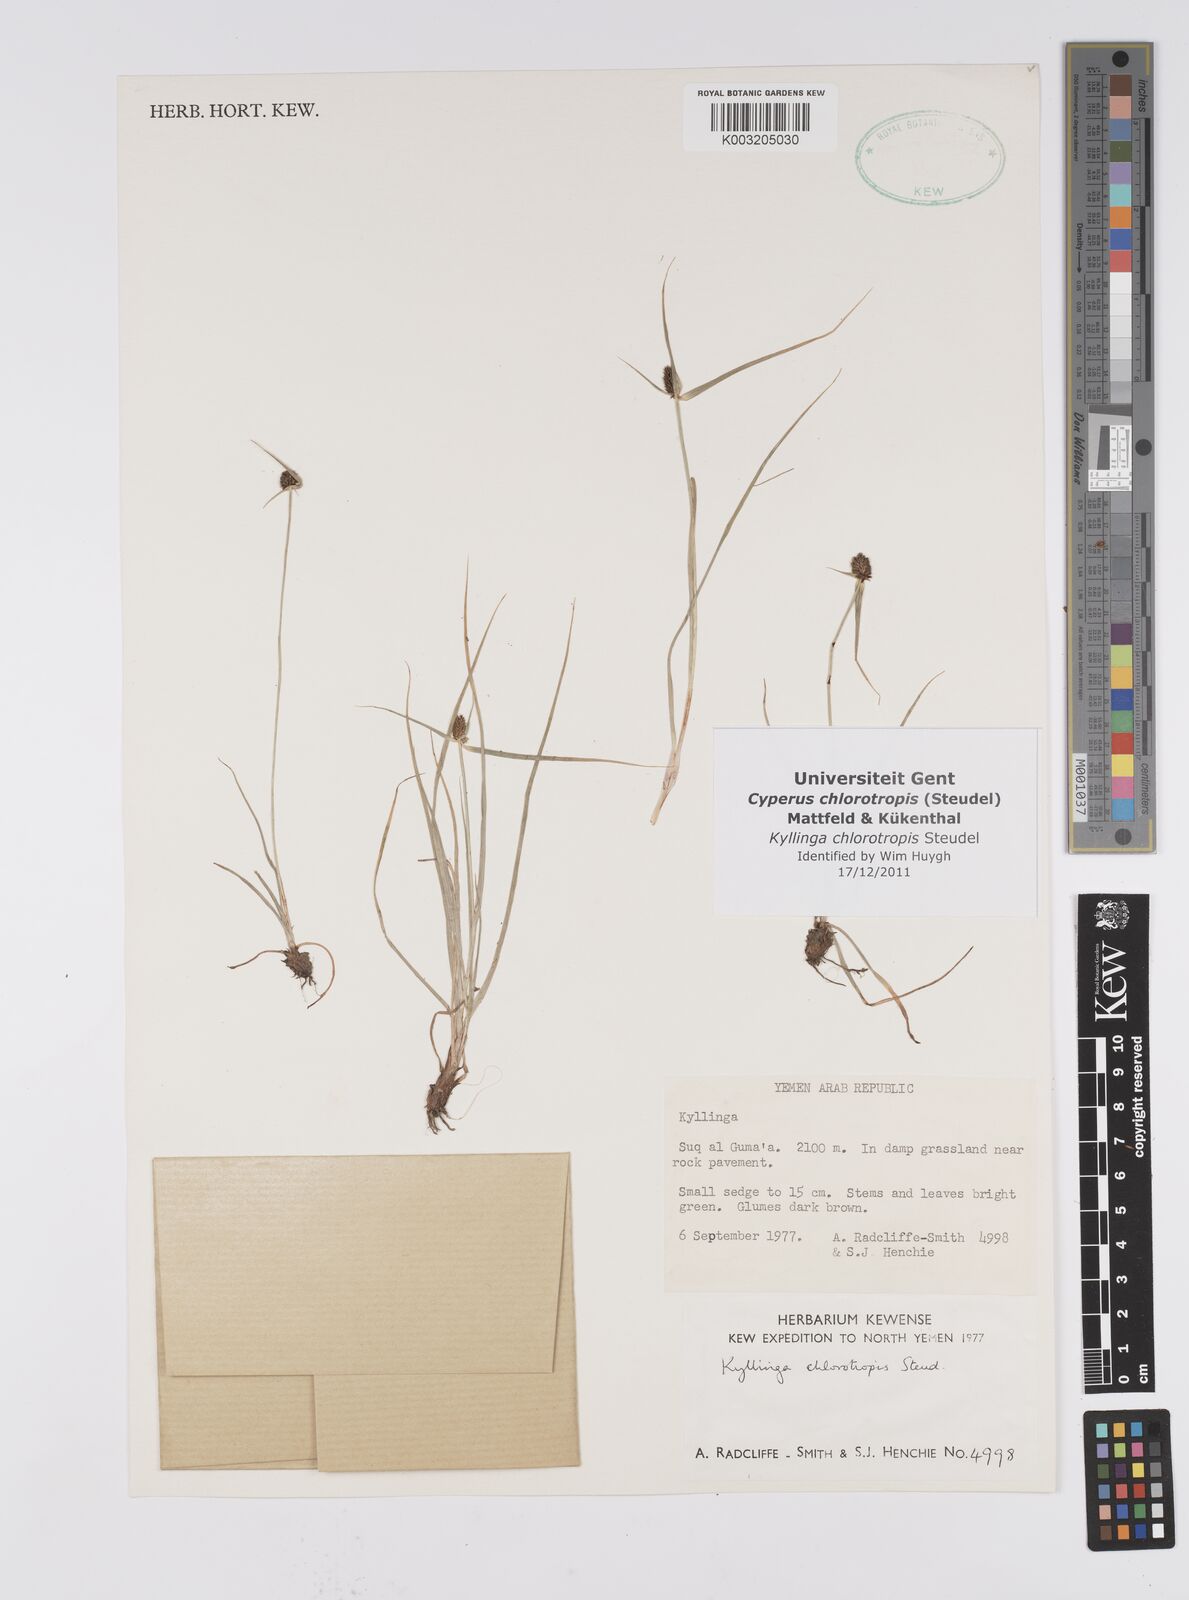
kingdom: Plantae
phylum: Tracheophyta
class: Liliopsida
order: Poales
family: Cyperaceae
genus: Cyperus
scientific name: Cyperus chlorotropis
